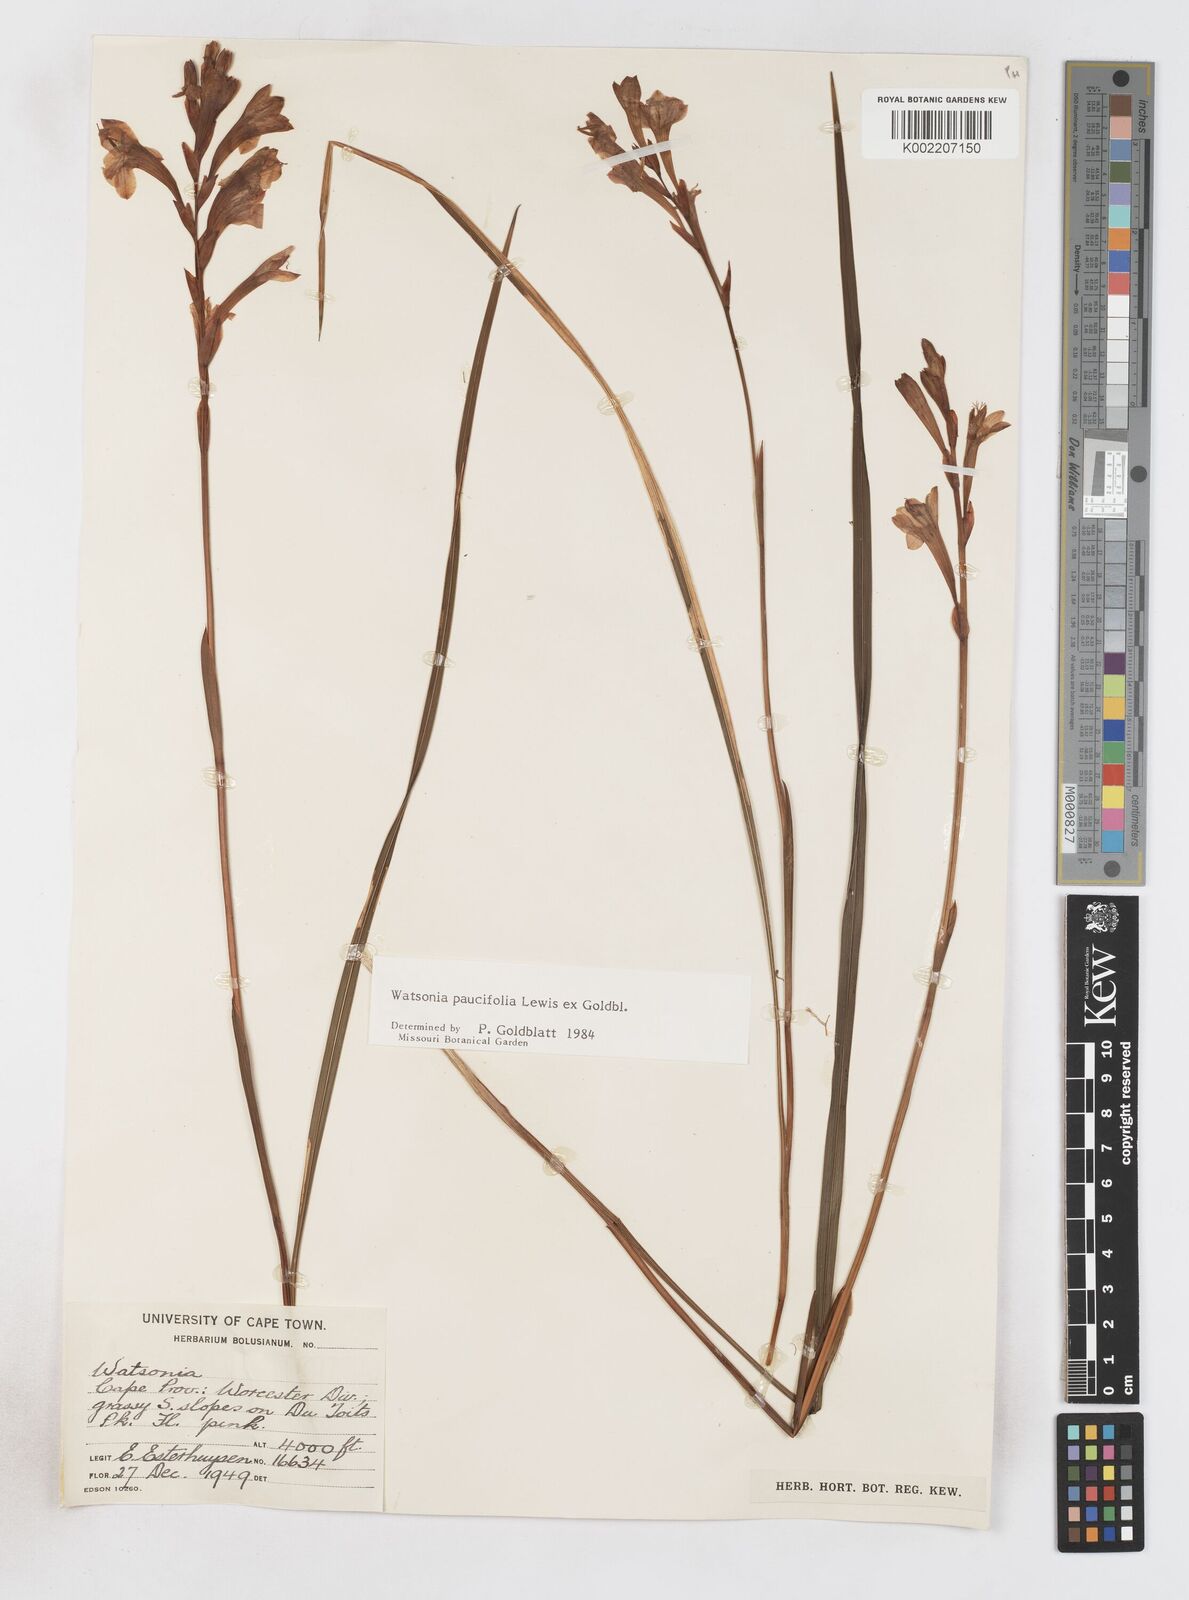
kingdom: Plantae
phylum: Tracheophyta
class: Liliopsida
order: Asparagales
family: Iridaceae
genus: Watsonia
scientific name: Watsonia distans
